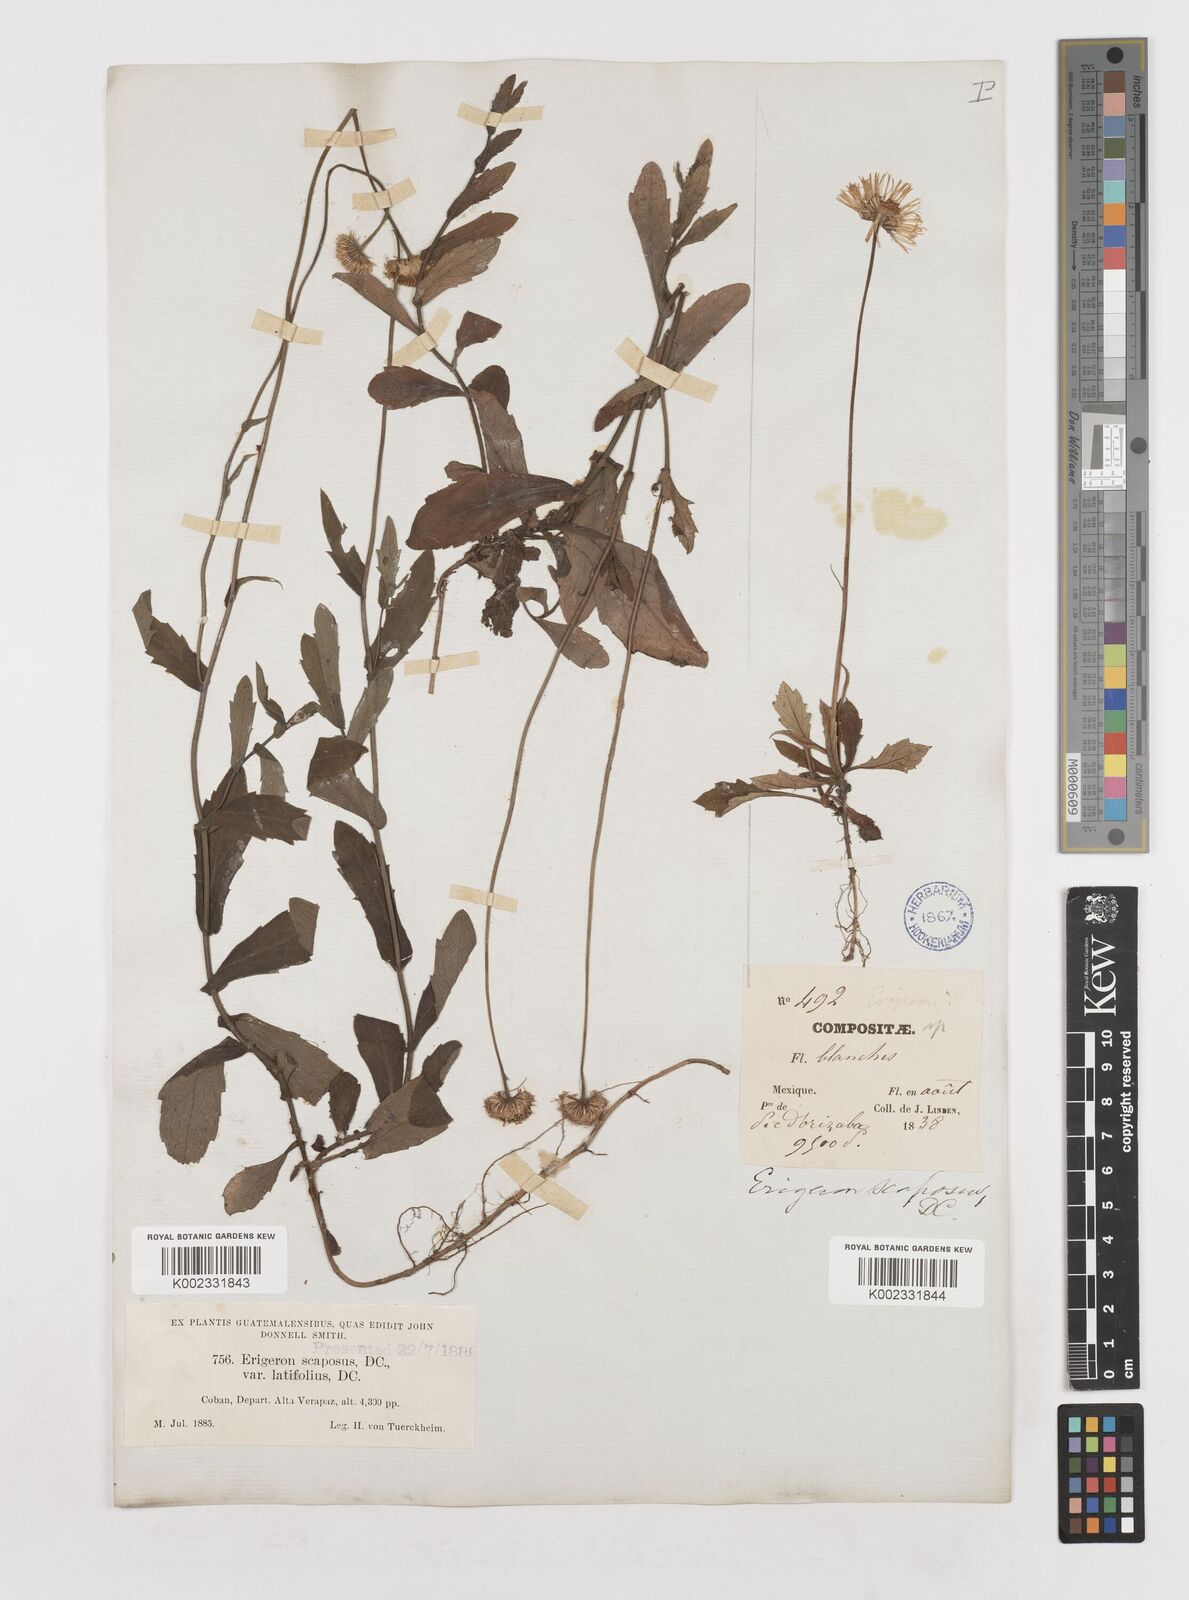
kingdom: Plantae
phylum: Tracheophyta
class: Magnoliopsida
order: Asterales
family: Asteraceae
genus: Erigeron
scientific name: Erigeron longipes
